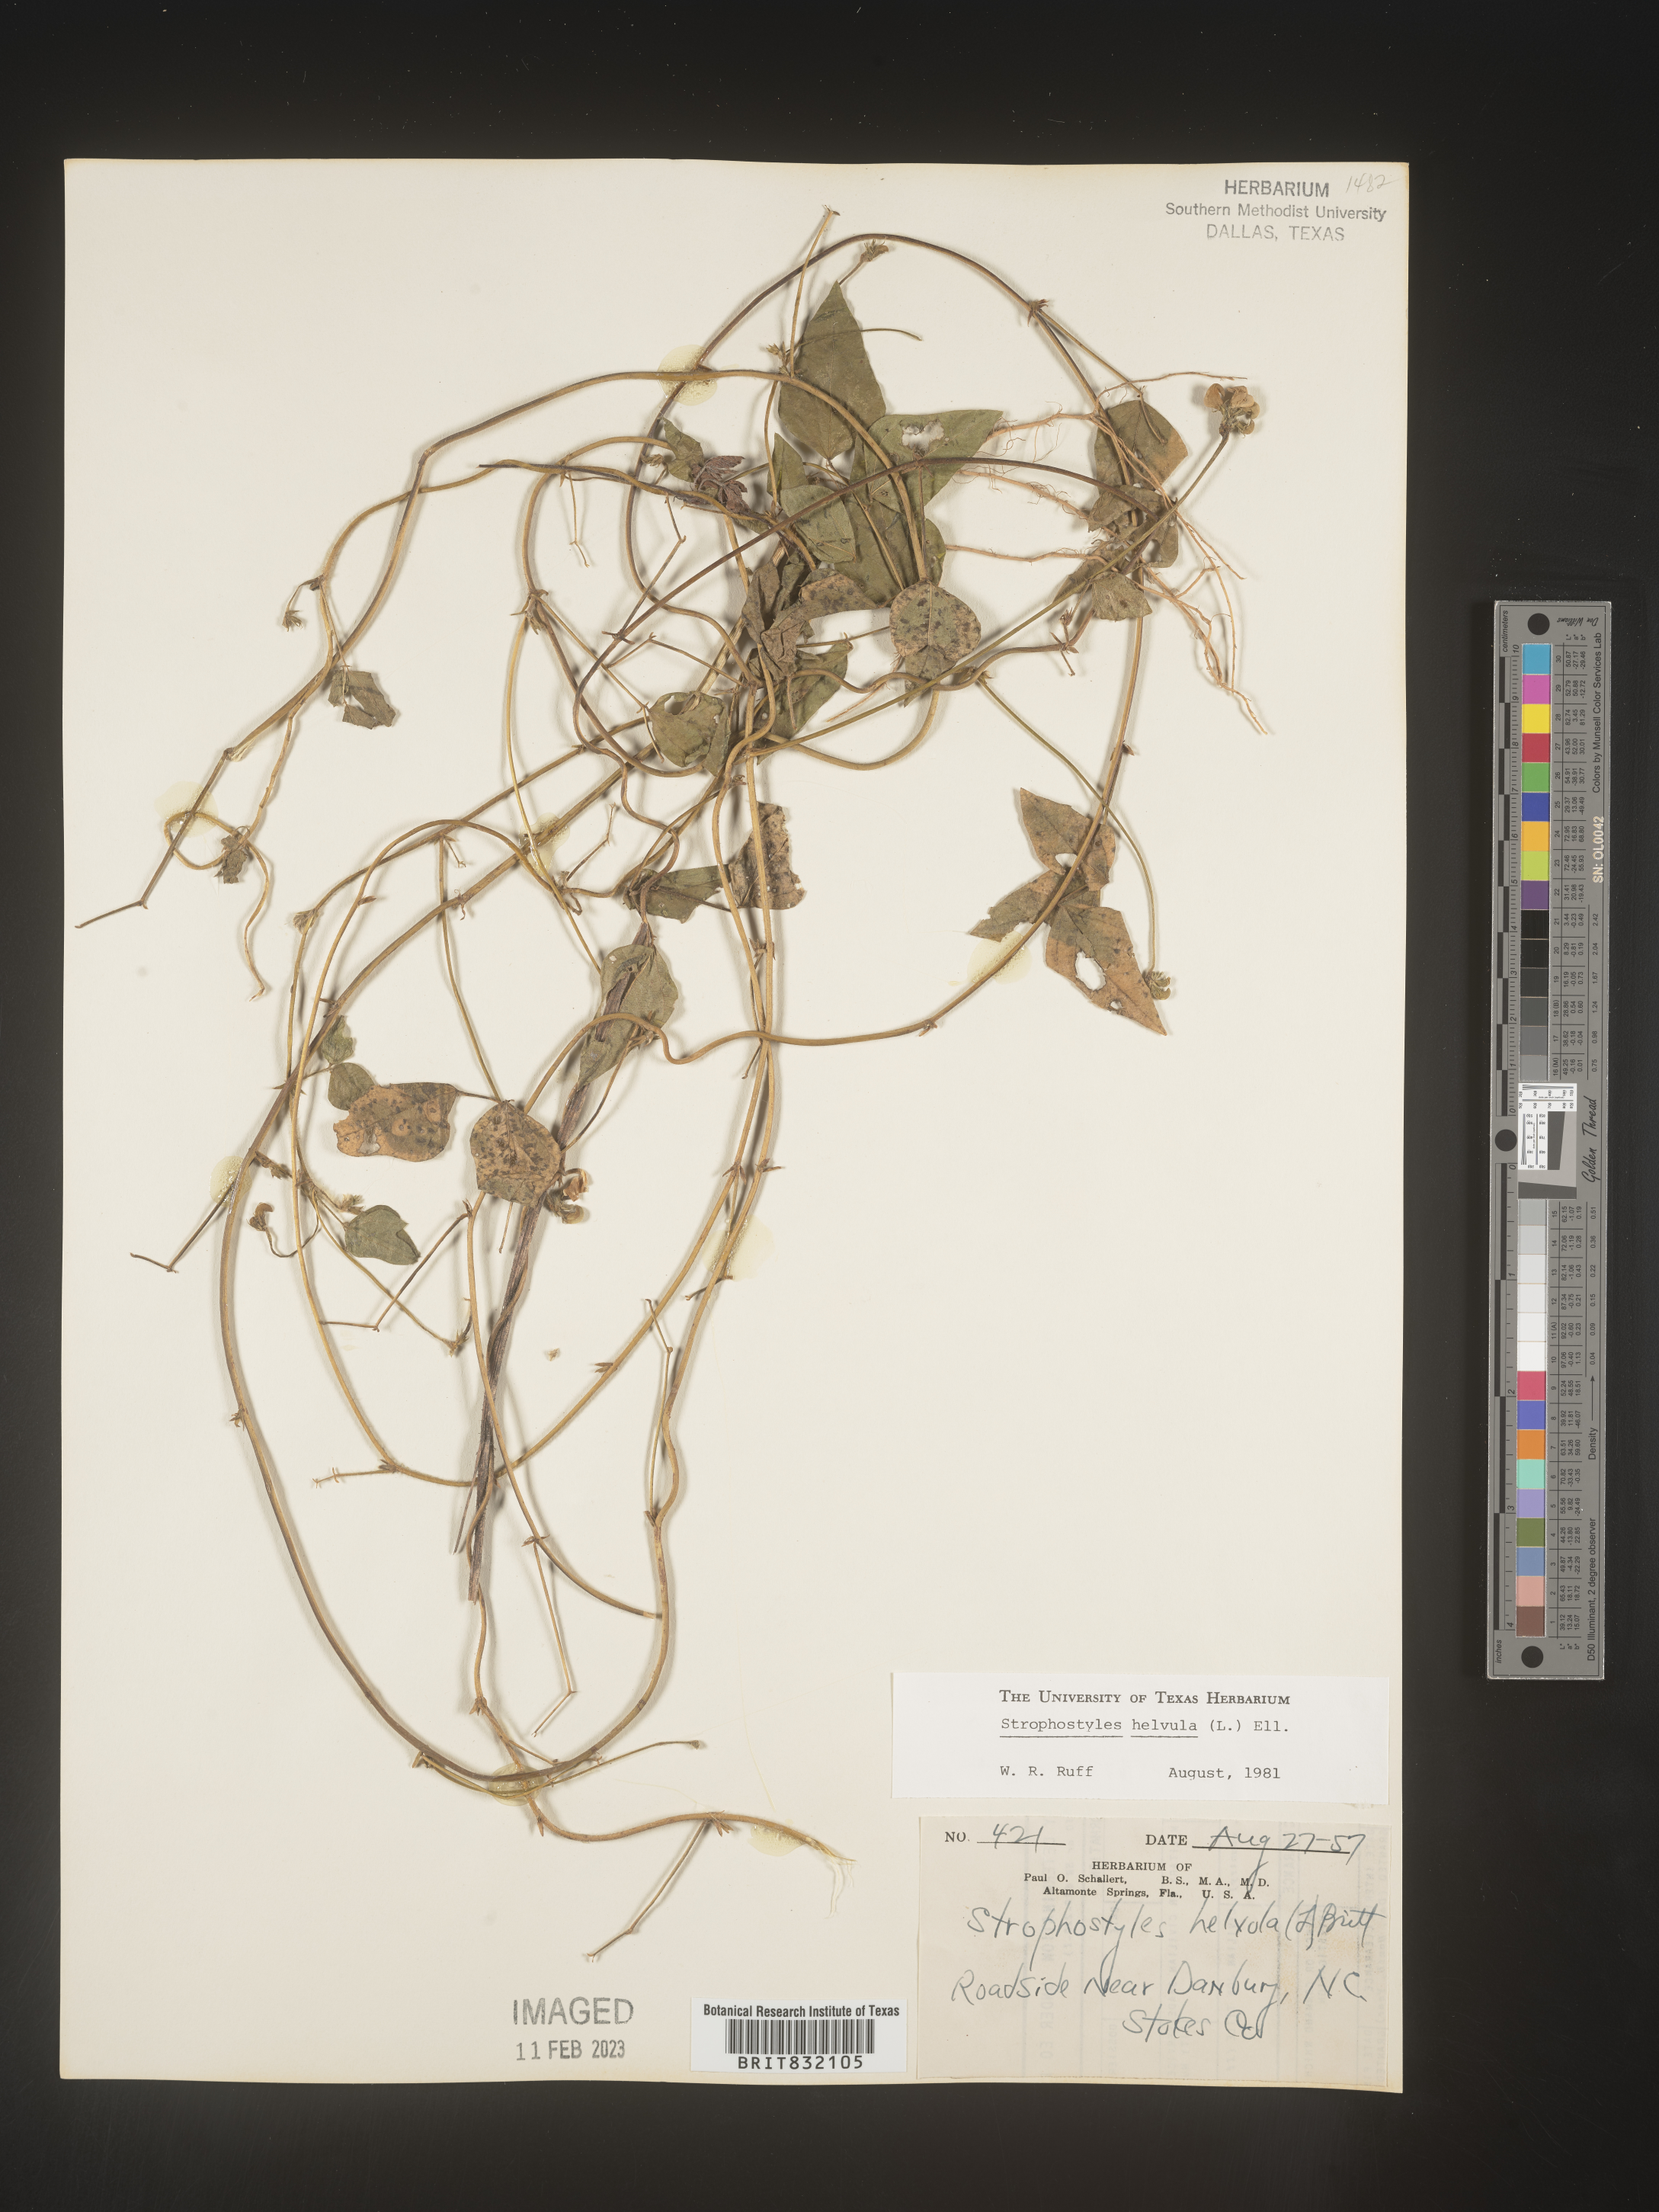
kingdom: Plantae
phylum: Tracheophyta
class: Magnoliopsida
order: Fabales
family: Fabaceae
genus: Strophostyles
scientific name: Strophostyles helvola
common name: Trailing wild bean
